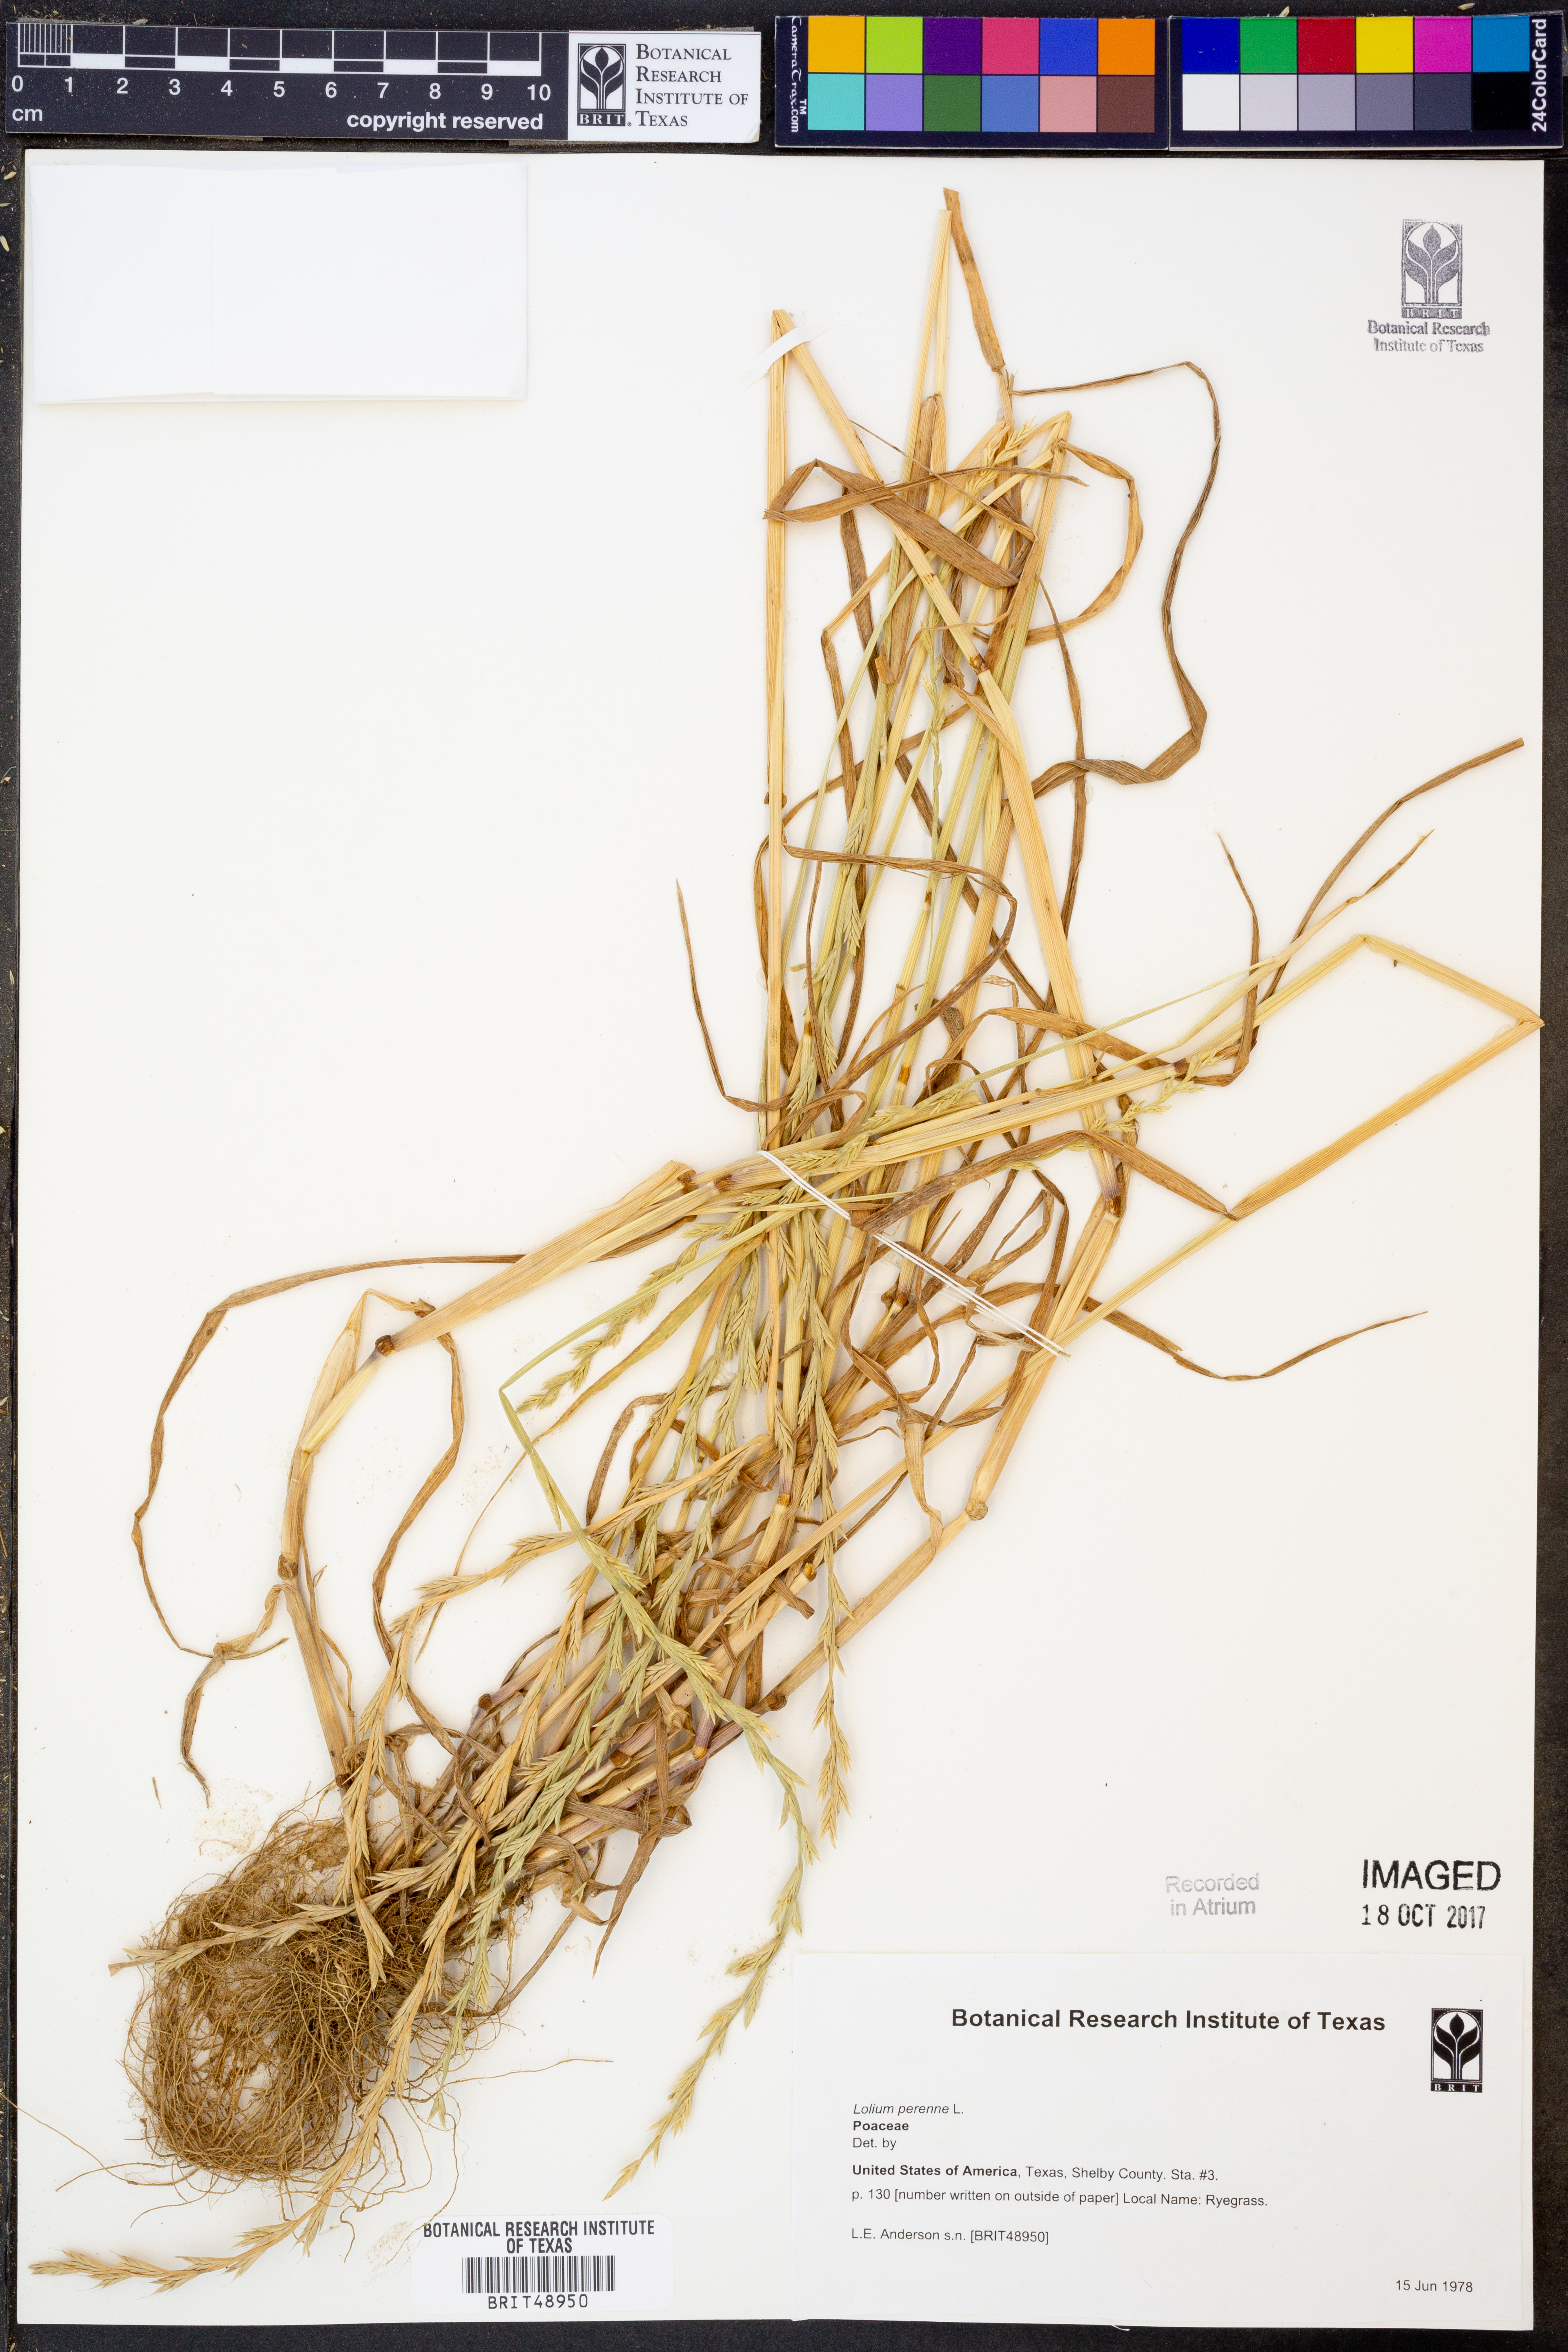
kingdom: Plantae
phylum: Tracheophyta
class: Liliopsida
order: Poales
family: Poaceae
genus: Lolium
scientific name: Lolium perenne
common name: Perennial ryegrass
